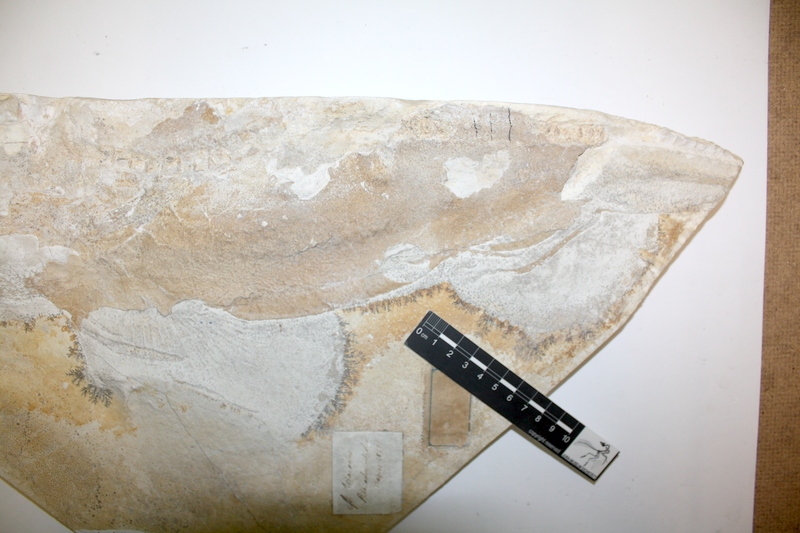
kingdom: Animalia
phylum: Chordata
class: Elasmobranchii
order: Orectolobiformes
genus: Palaeocarcharias
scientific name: Palaeocarcharias stromeri
